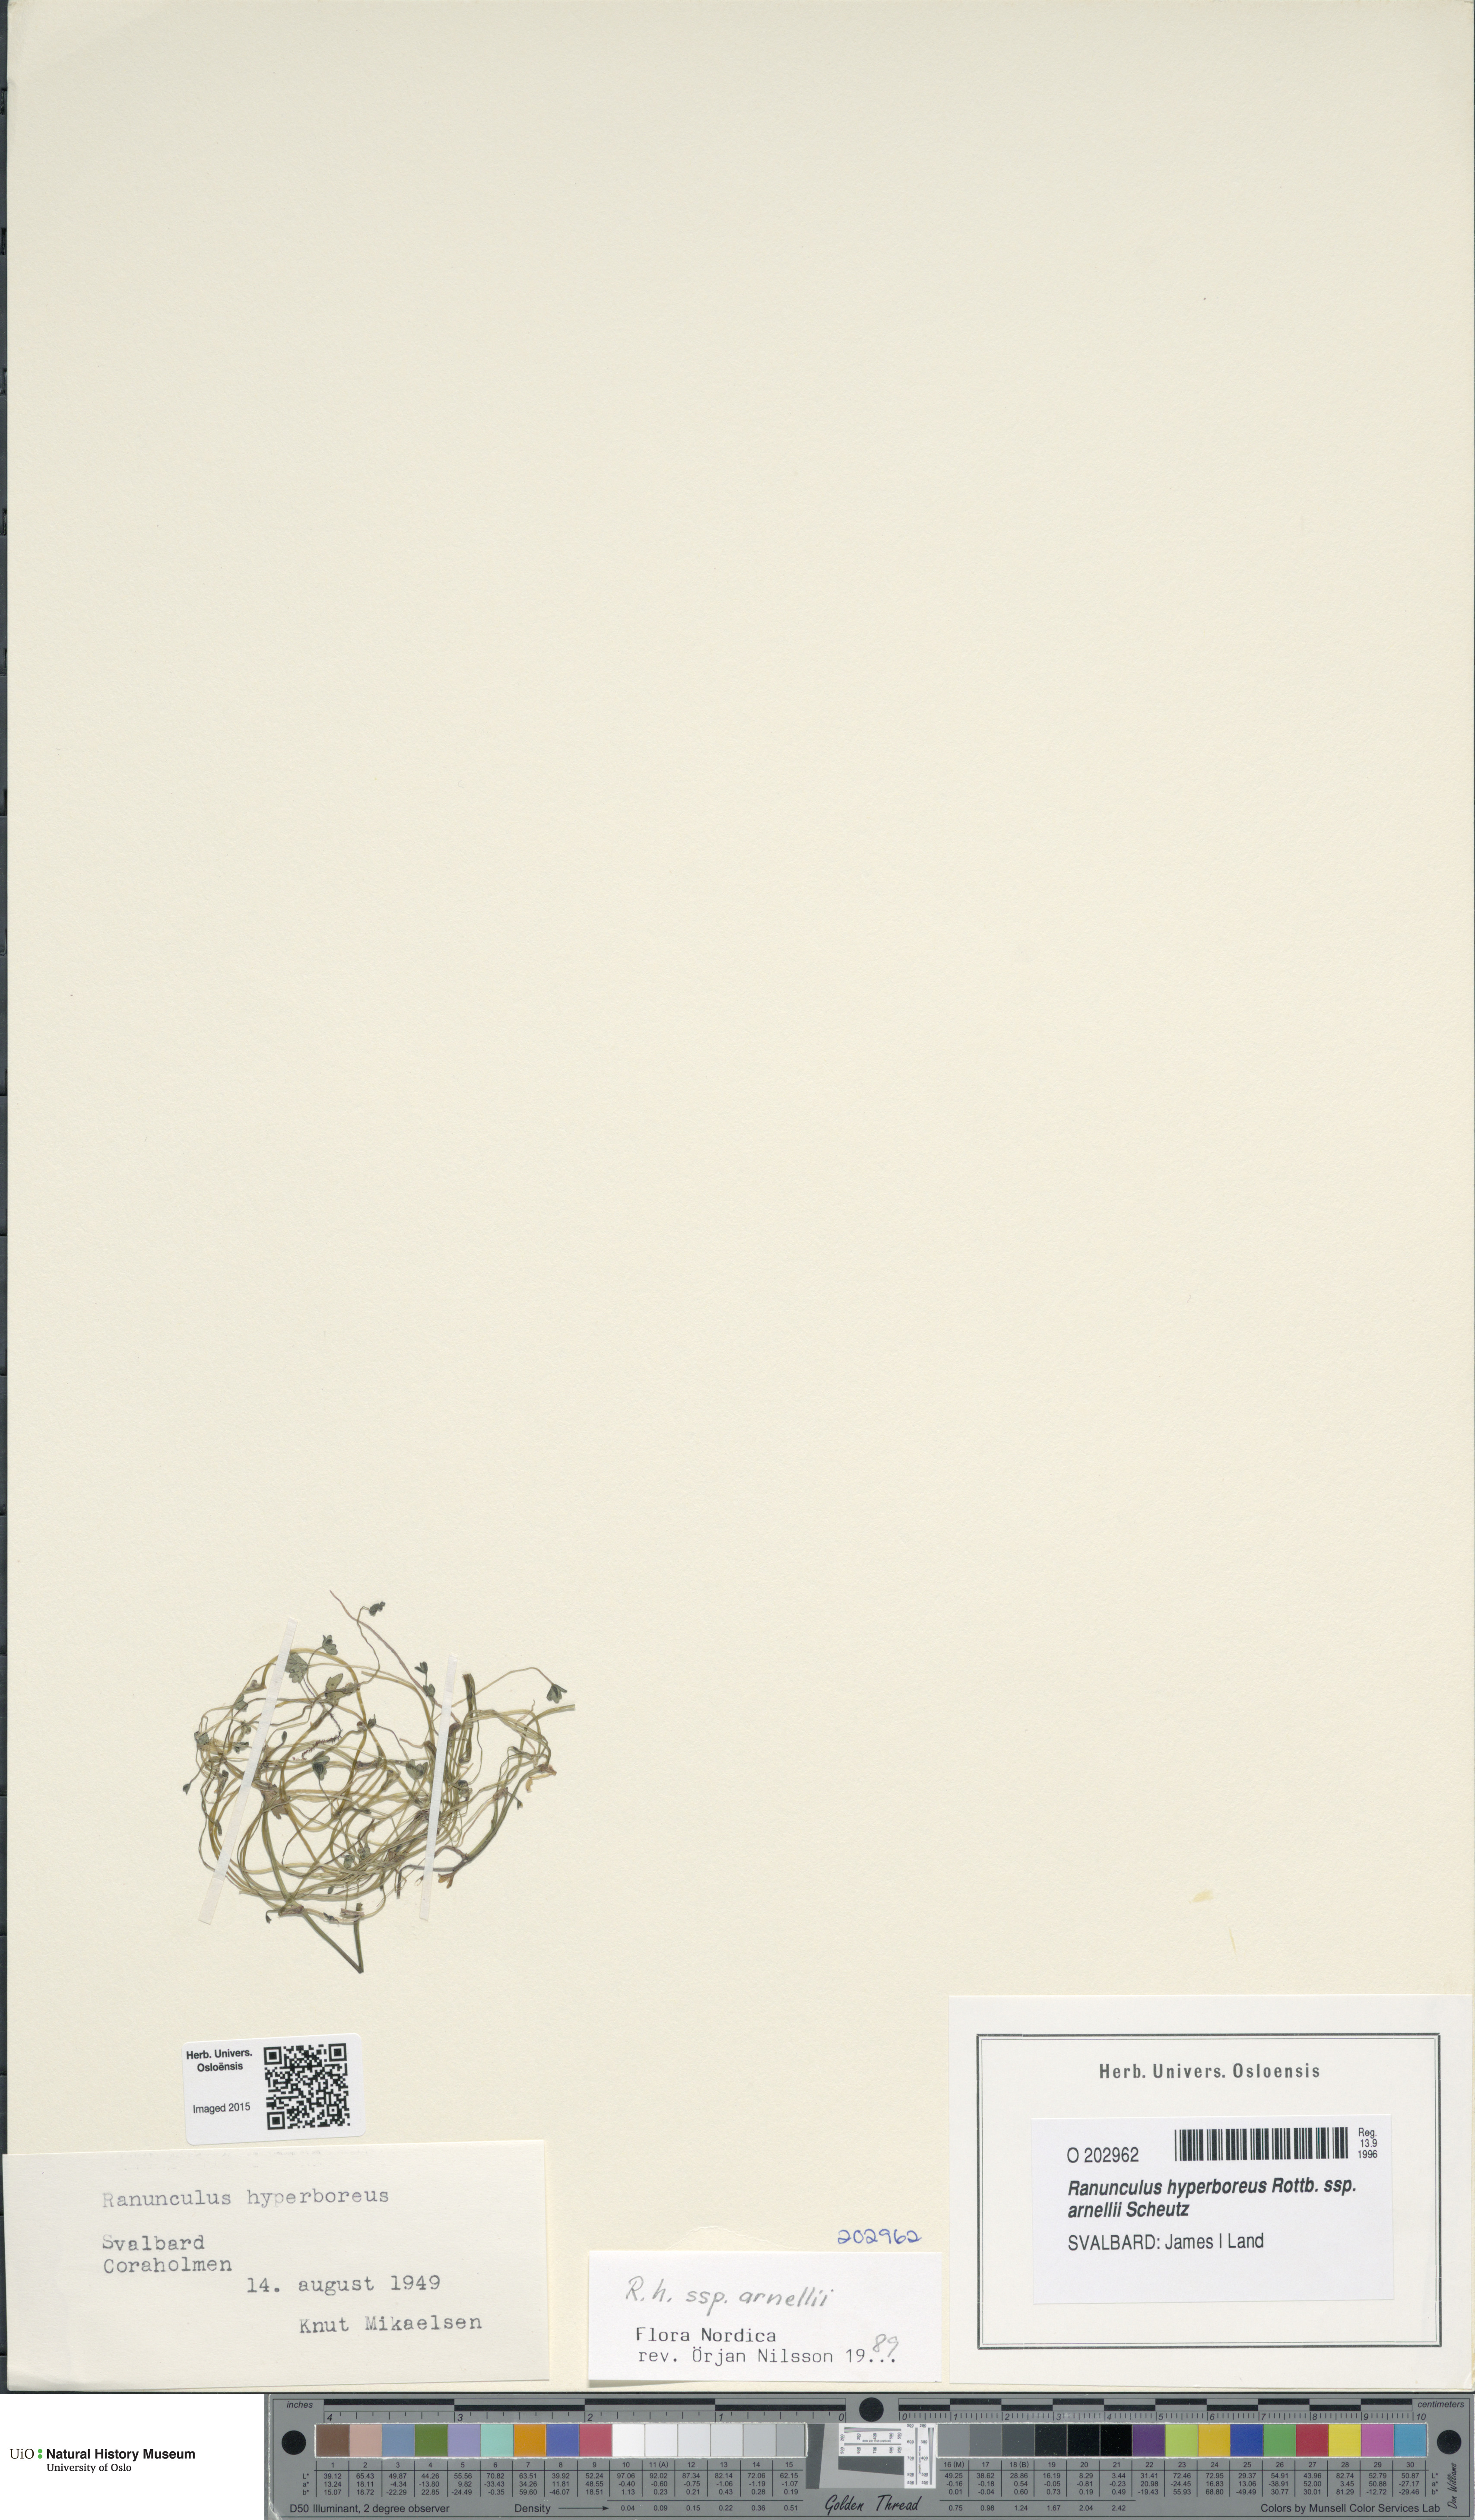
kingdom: Plantae
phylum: Tracheophyta
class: Magnoliopsida
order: Ranunculales
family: Ranunculaceae
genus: Ranunculus
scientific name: Ranunculus hyperboreus
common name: Arctic buttercup
